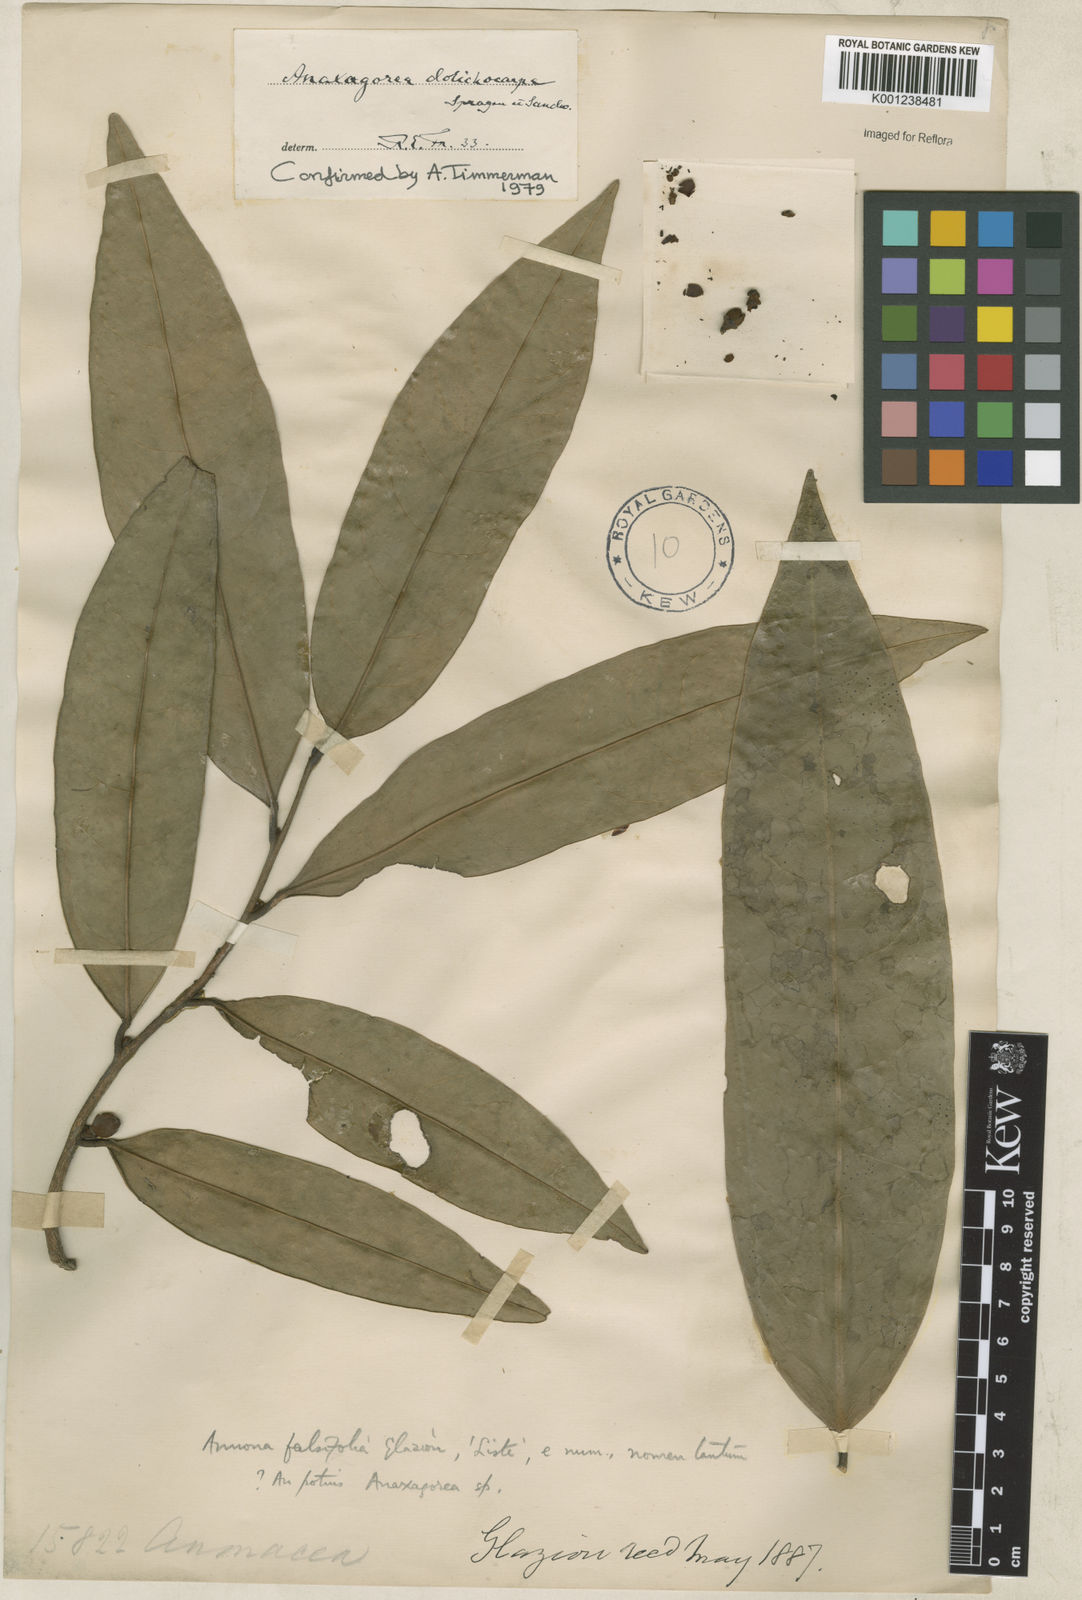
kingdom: Plantae
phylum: Tracheophyta
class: Magnoliopsida
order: Magnoliales
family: Annonaceae
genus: Anaxagorea
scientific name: Anaxagorea dolichocarpa
